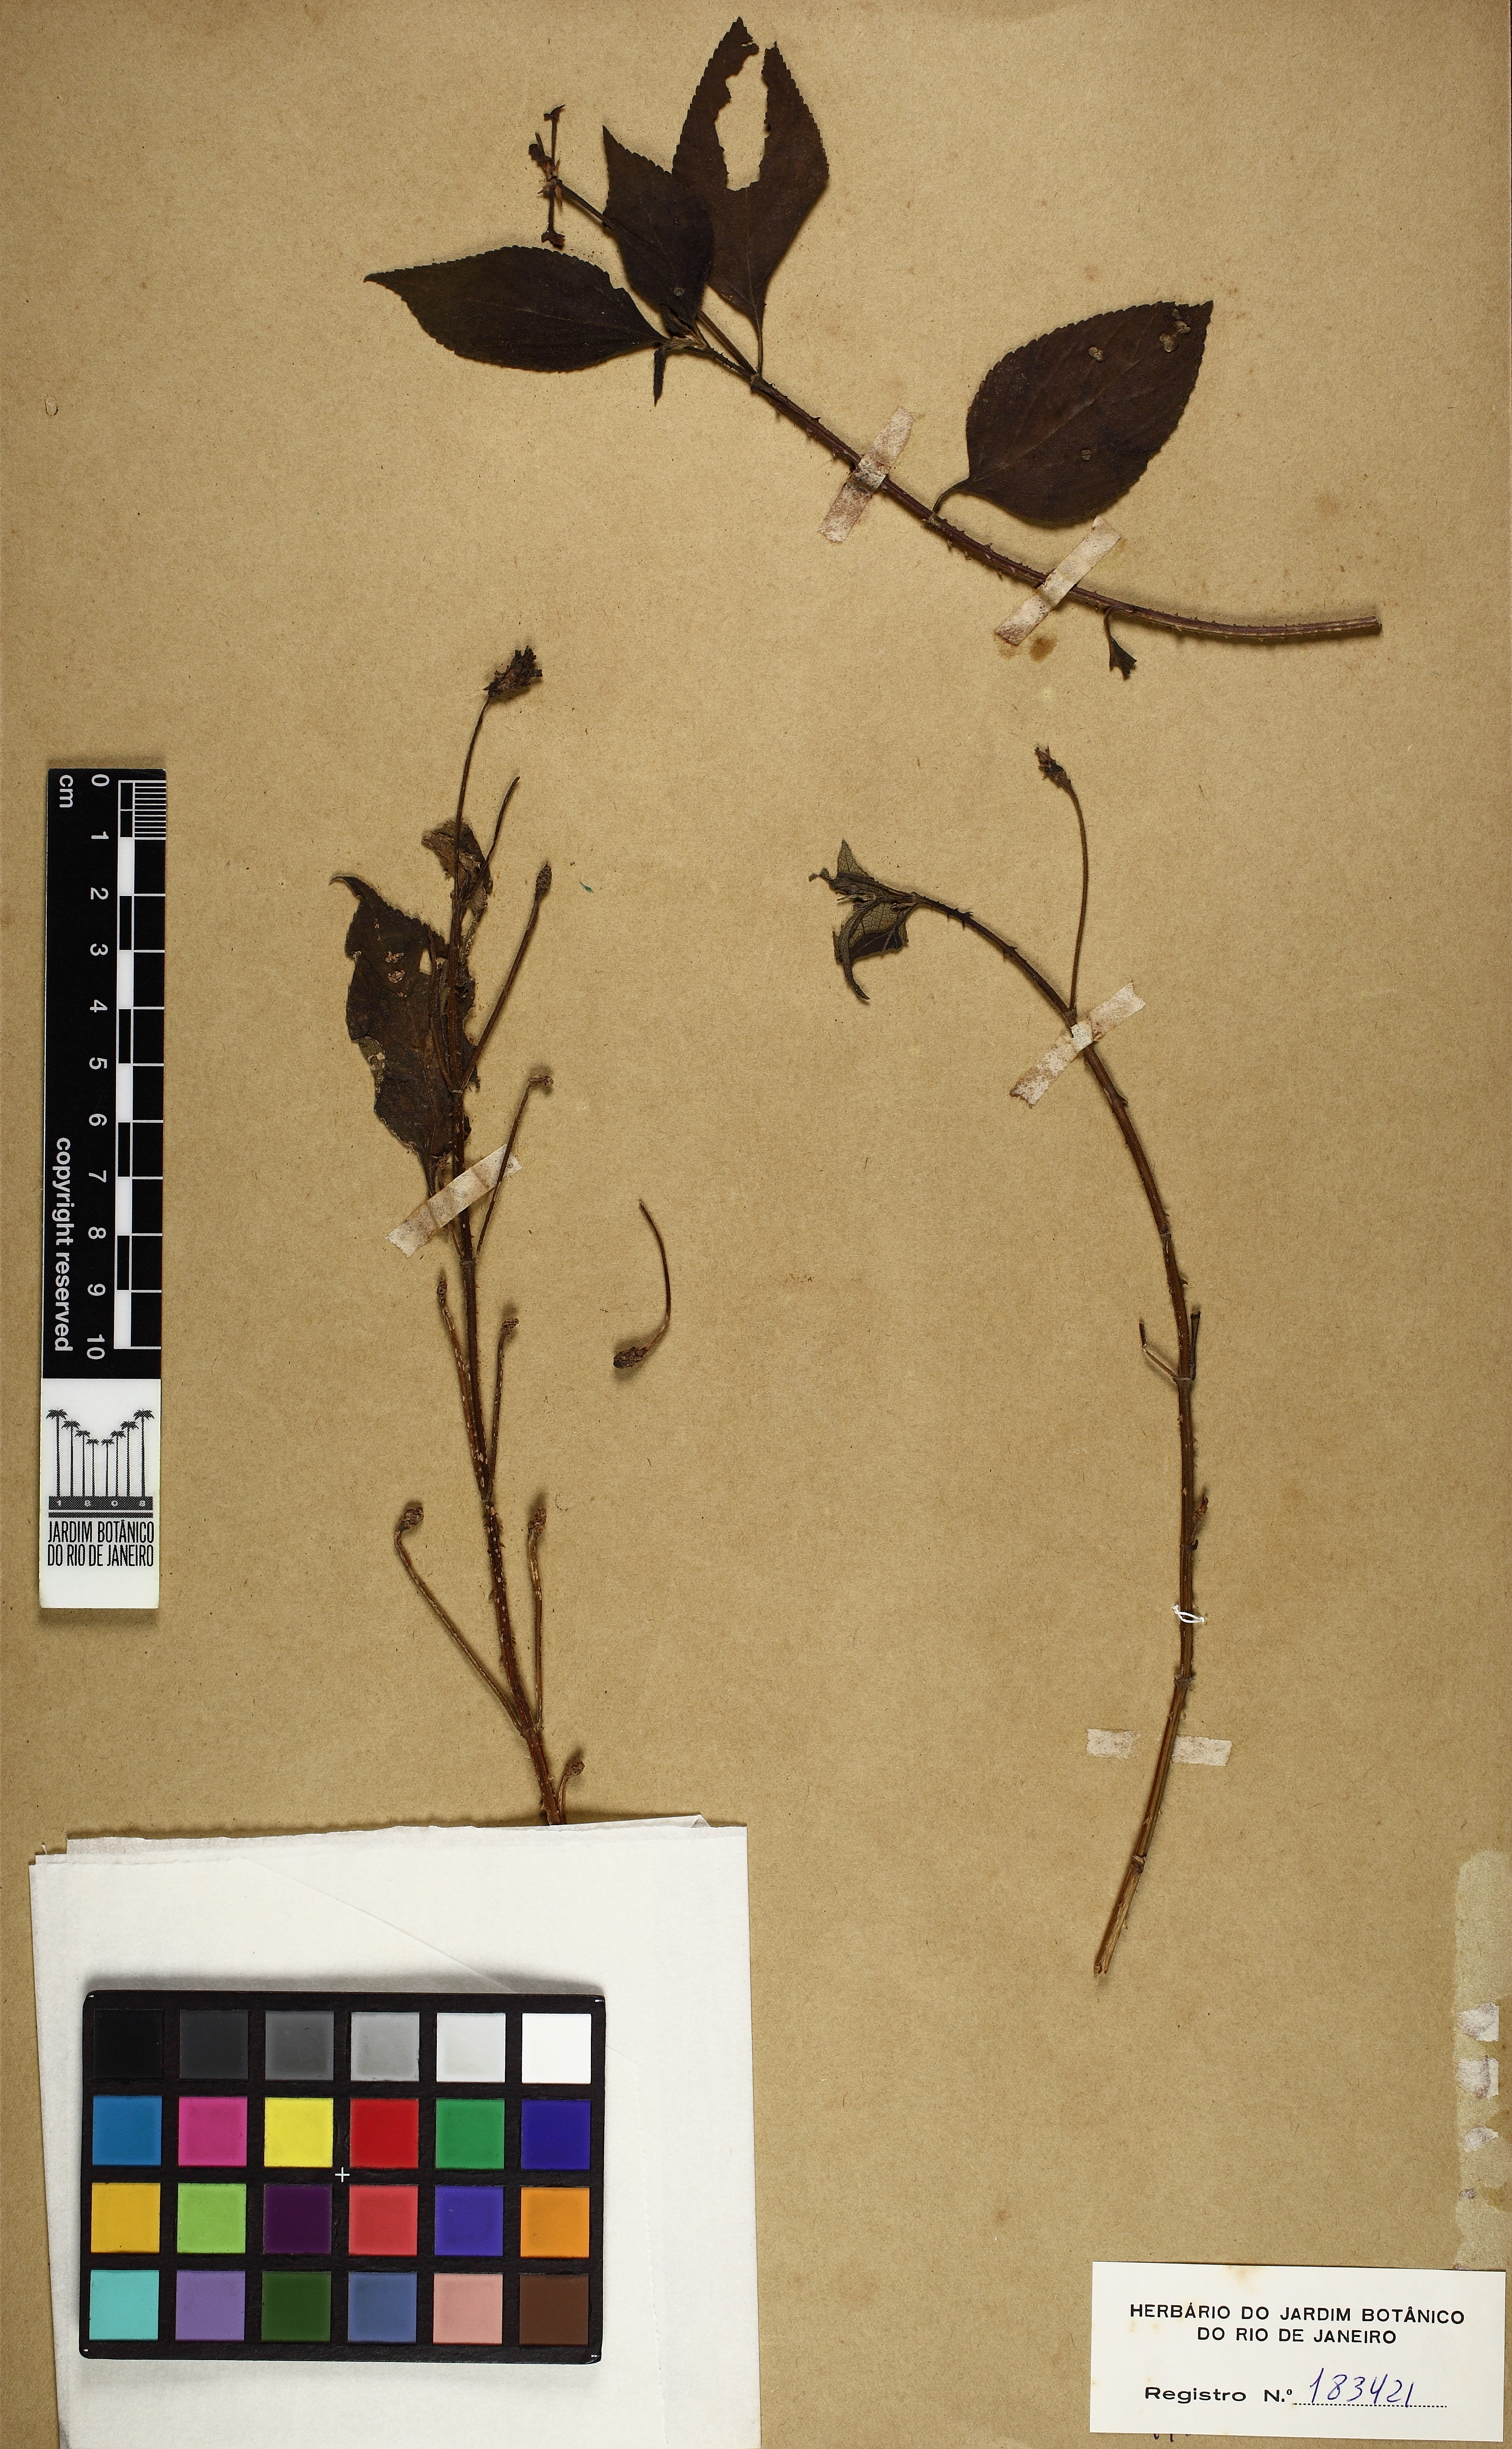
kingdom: Plantae
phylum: Tracheophyta
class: Magnoliopsida
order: Lamiales
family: Verbenaceae
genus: Lantana
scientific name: Lantana
